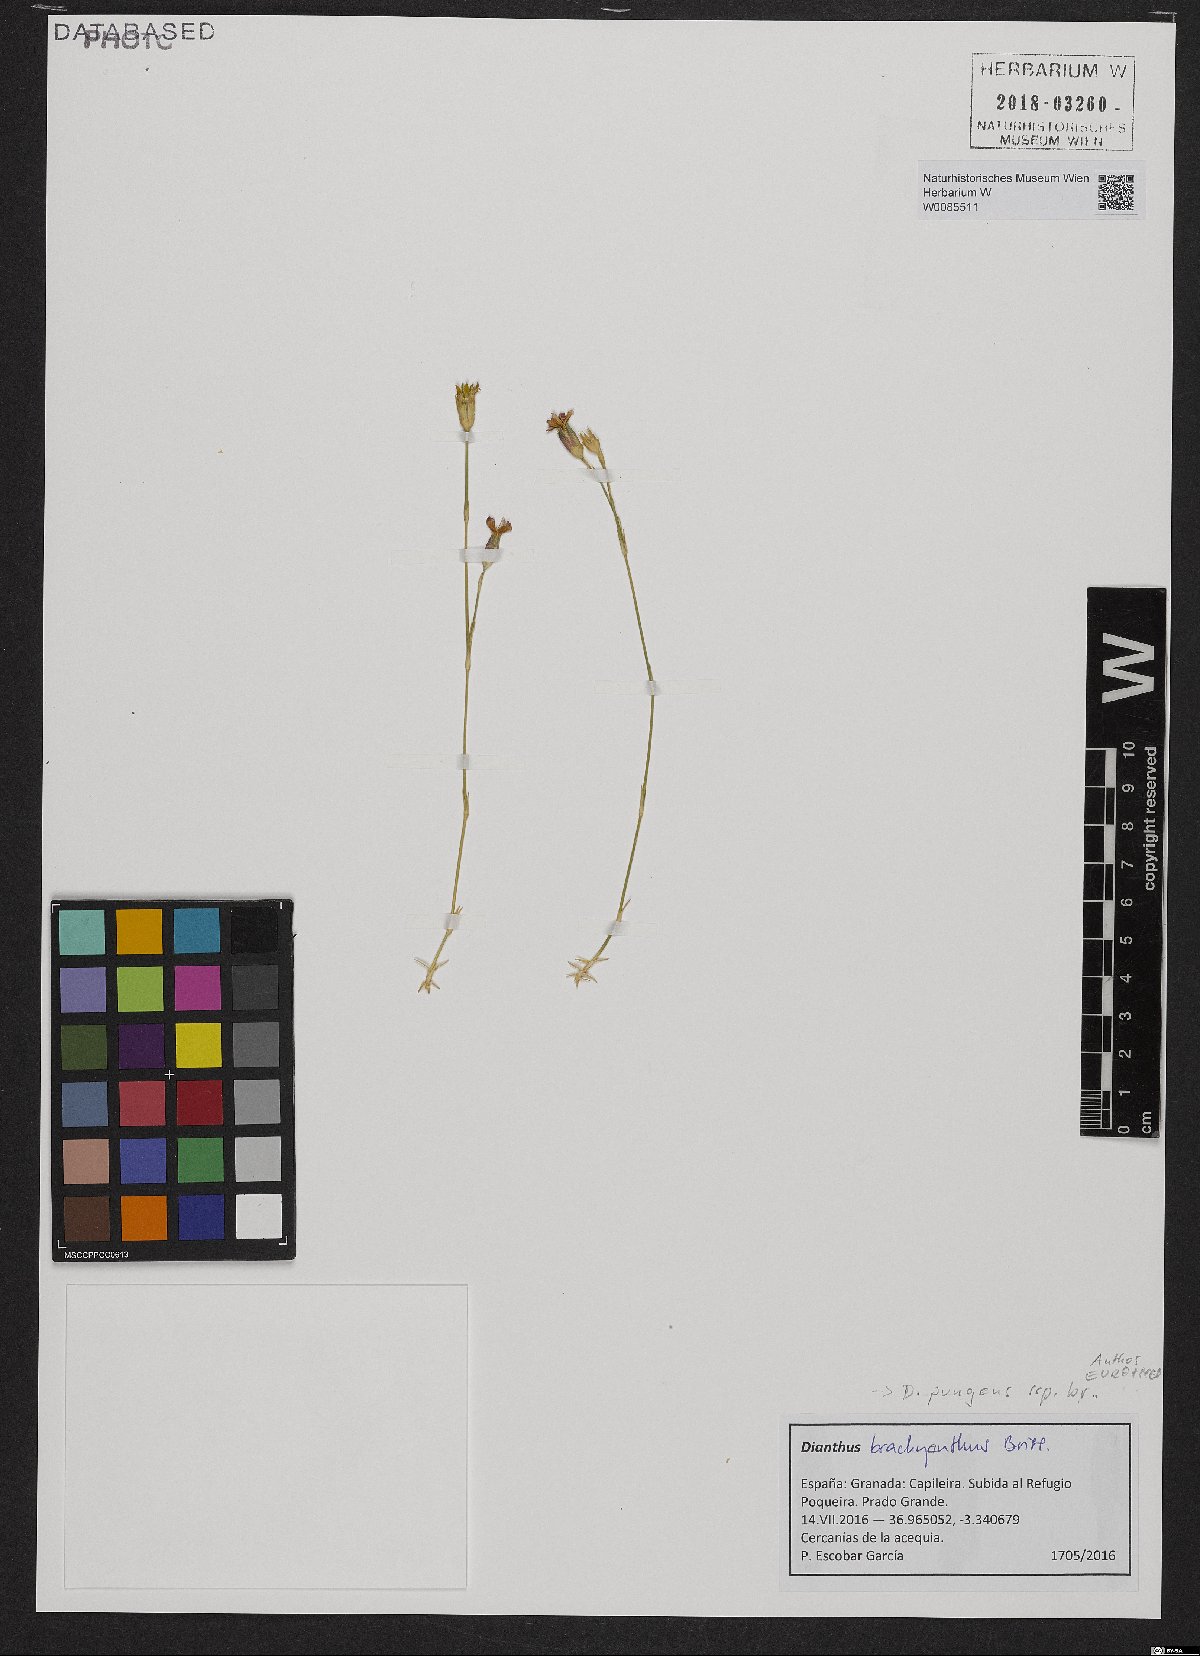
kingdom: Plantae
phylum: Tracheophyta
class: Magnoliopsida
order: Caryophyllales
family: Caryophyllaceae
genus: Dianthus
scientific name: Dianthus pungens
